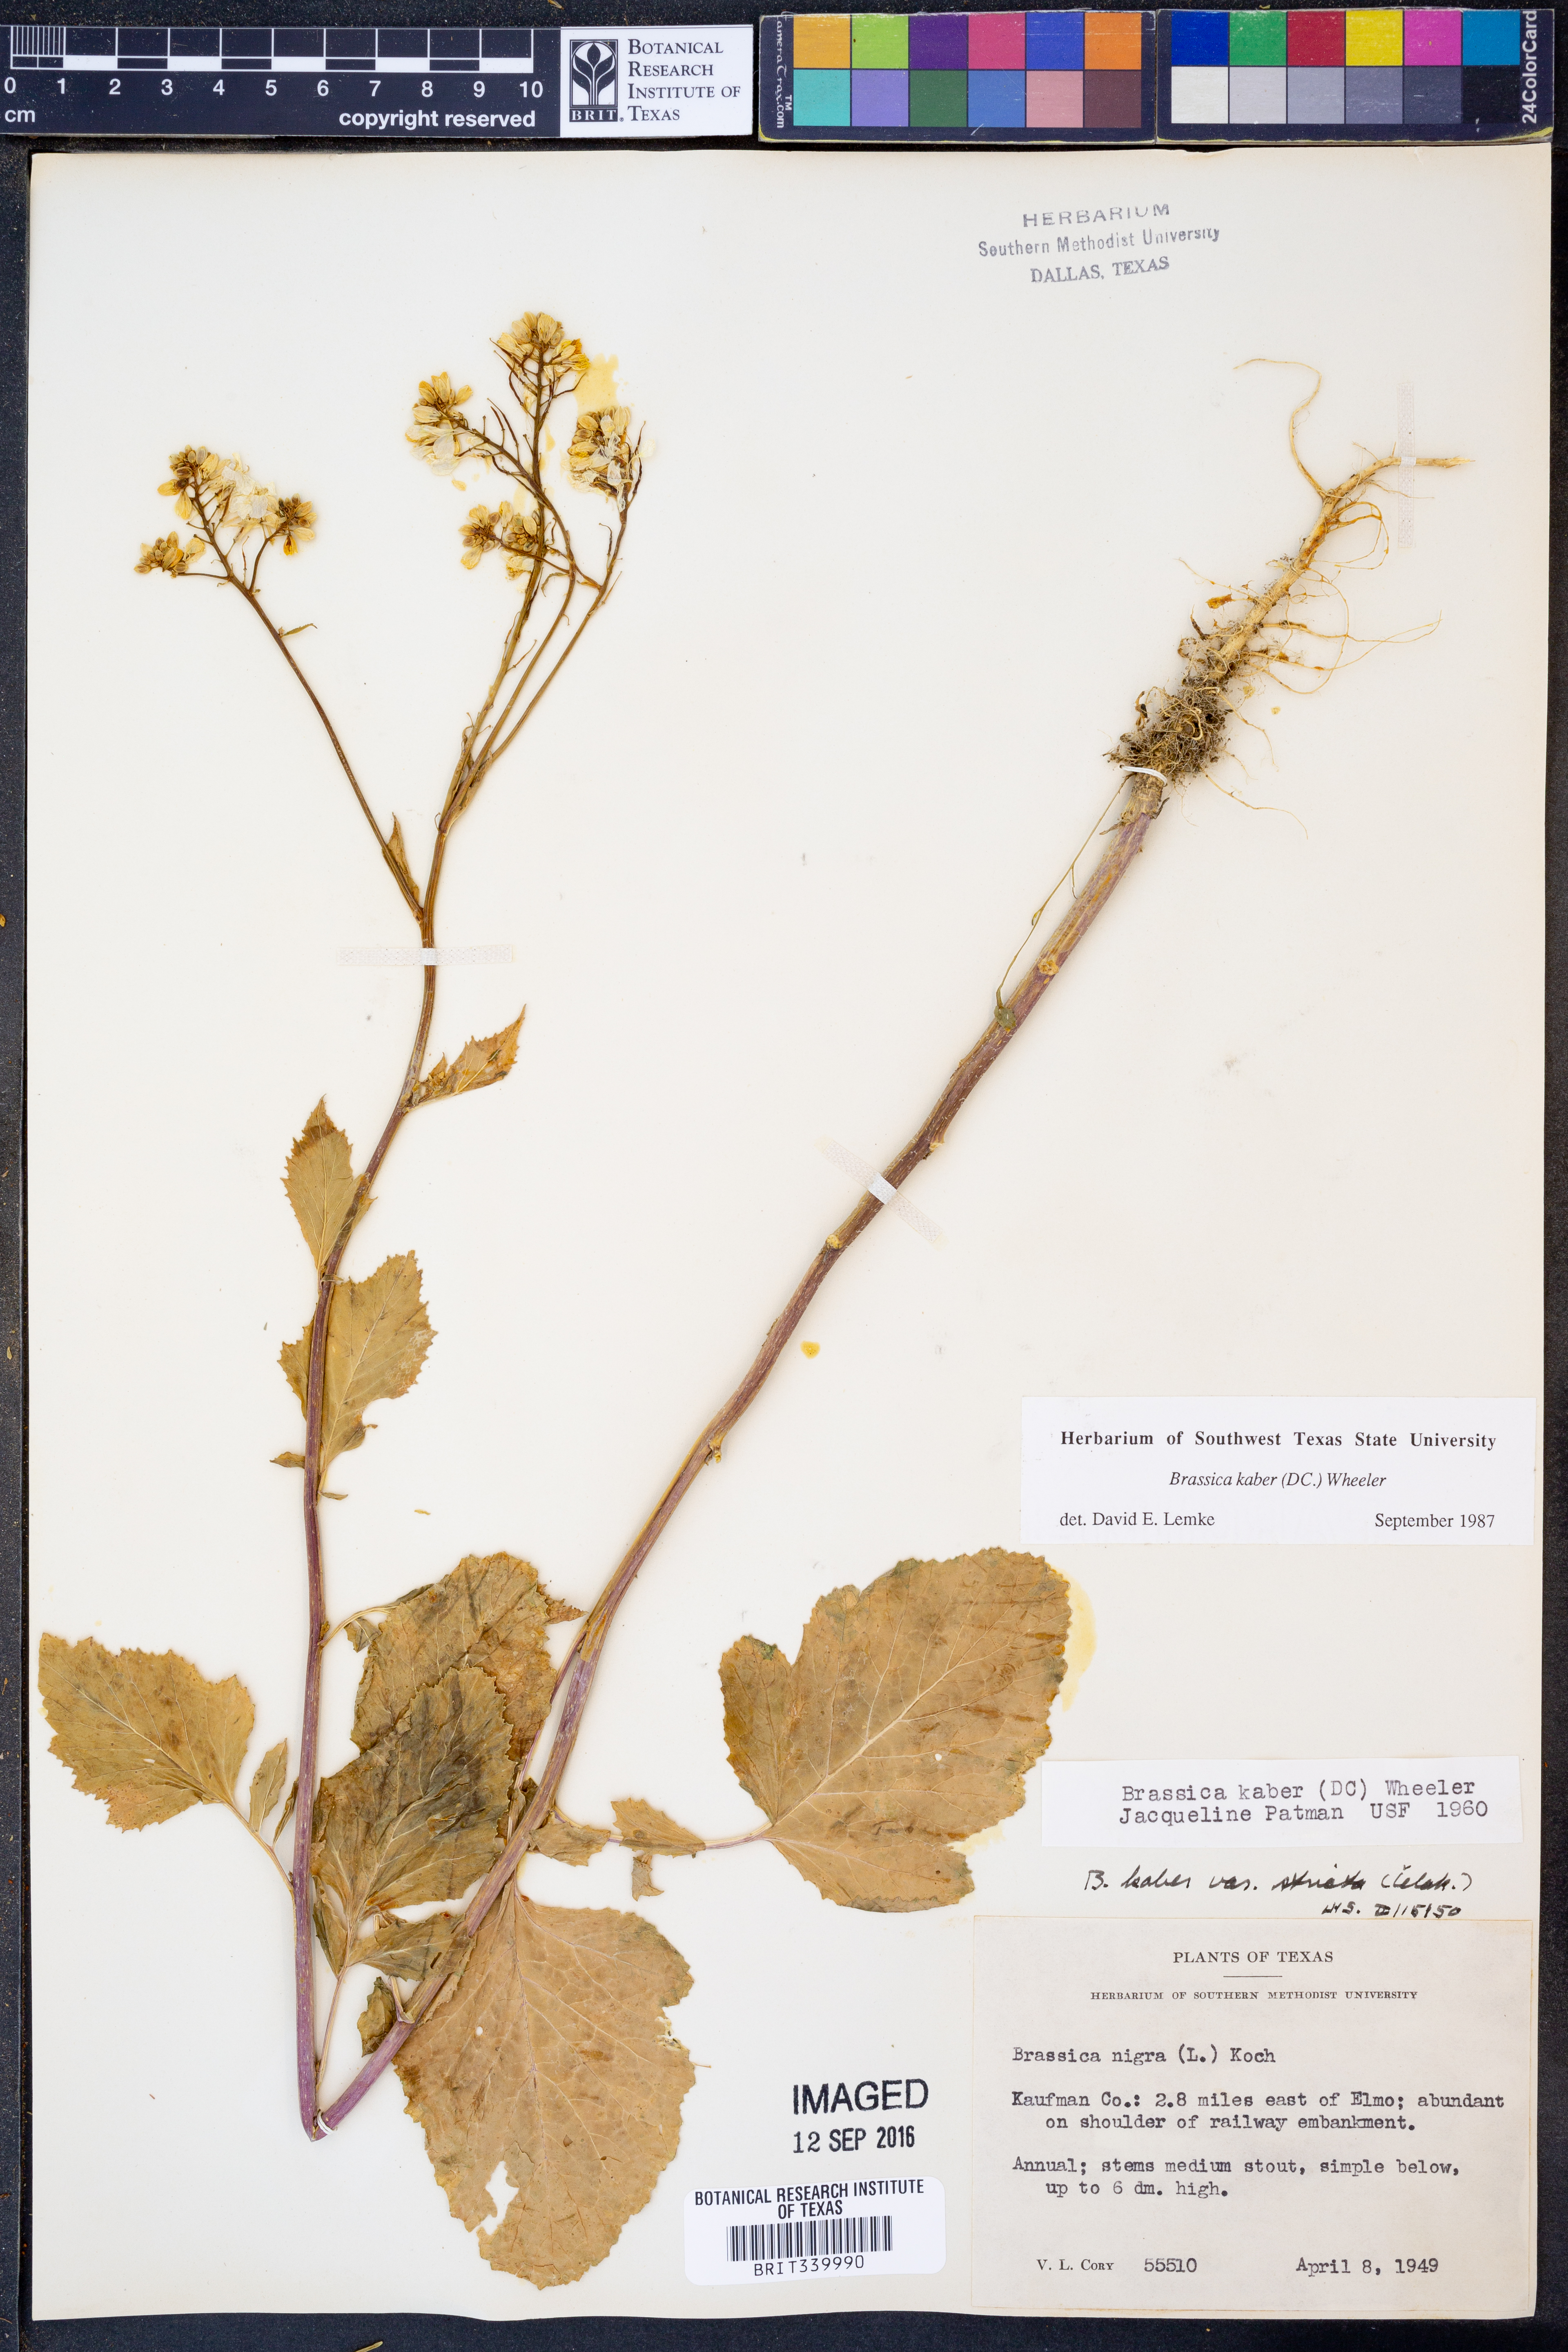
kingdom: Plantae
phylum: Tracheophyta
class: Magnoliopsida
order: Brassicales
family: Brassicaceae
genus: Sinapis
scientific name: Sinapis arvensis
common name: Charlock
